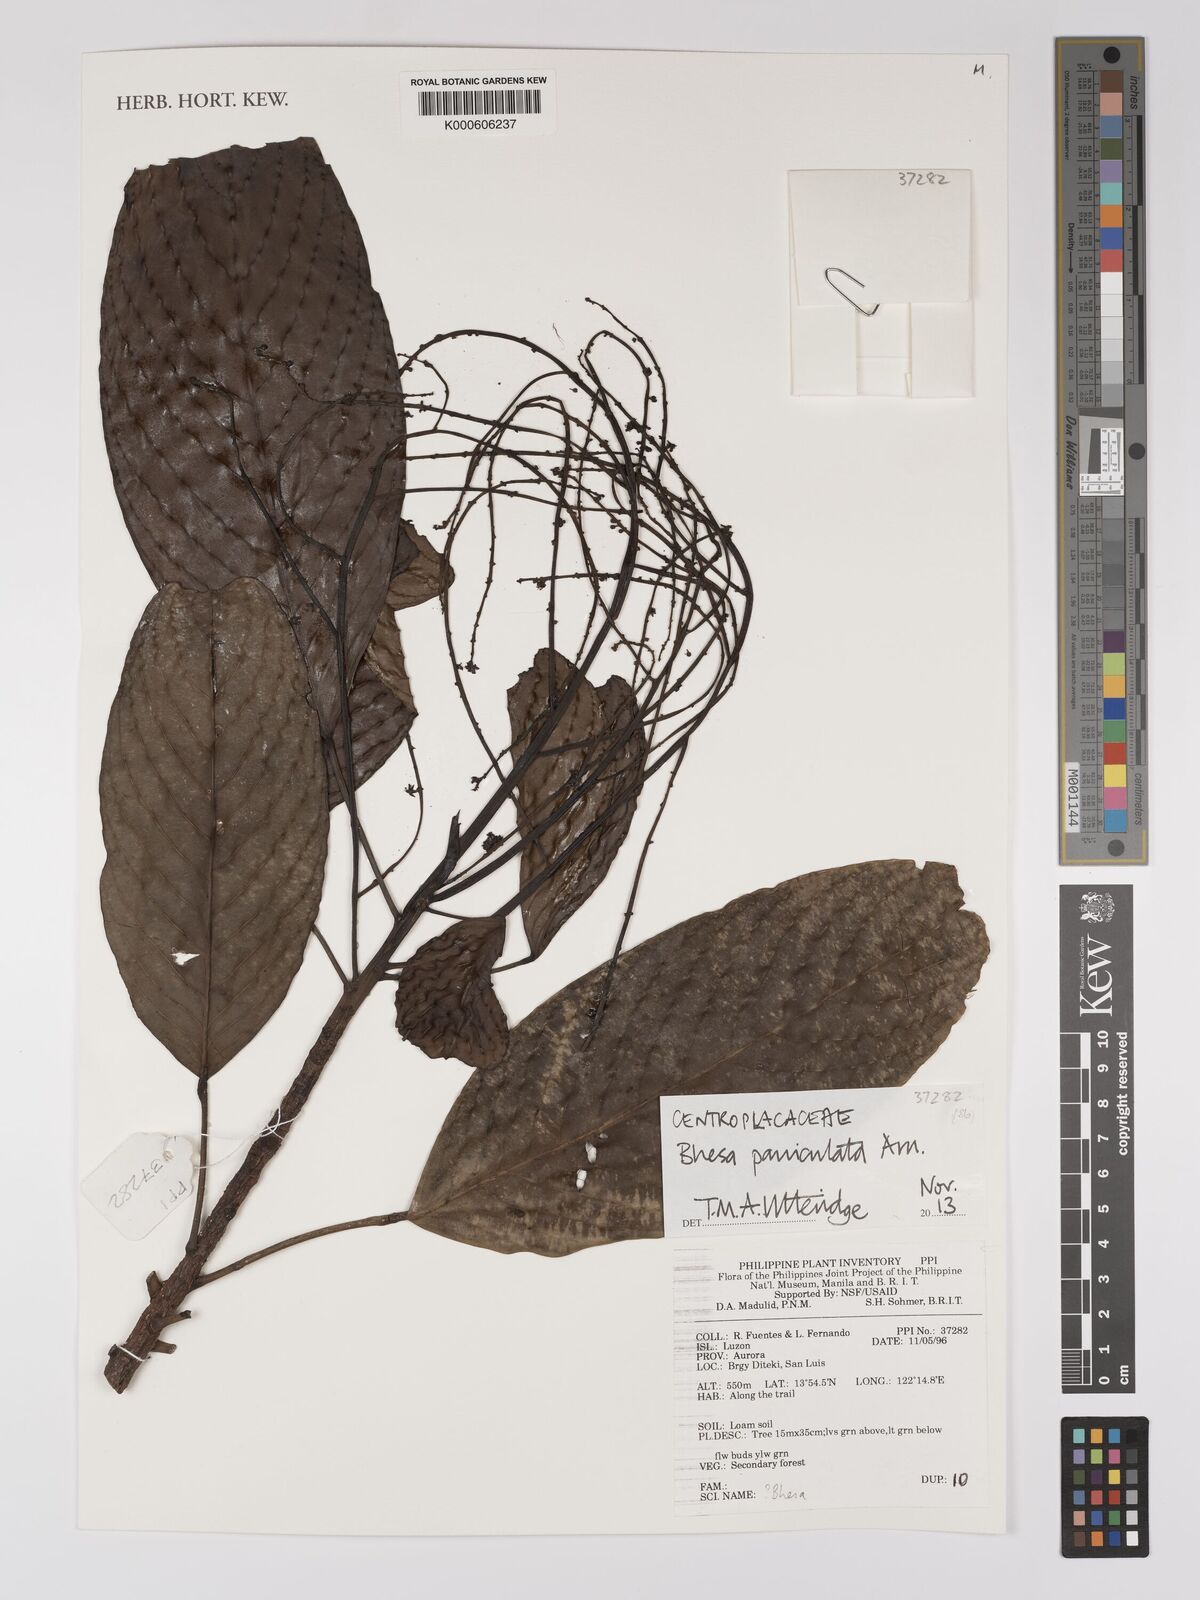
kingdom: Plantae
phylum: Tracheophyta
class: Magnoliopsida
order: Malpighiales
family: Centroplacaceae
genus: Bhesa
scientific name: Bhesa paniculata
